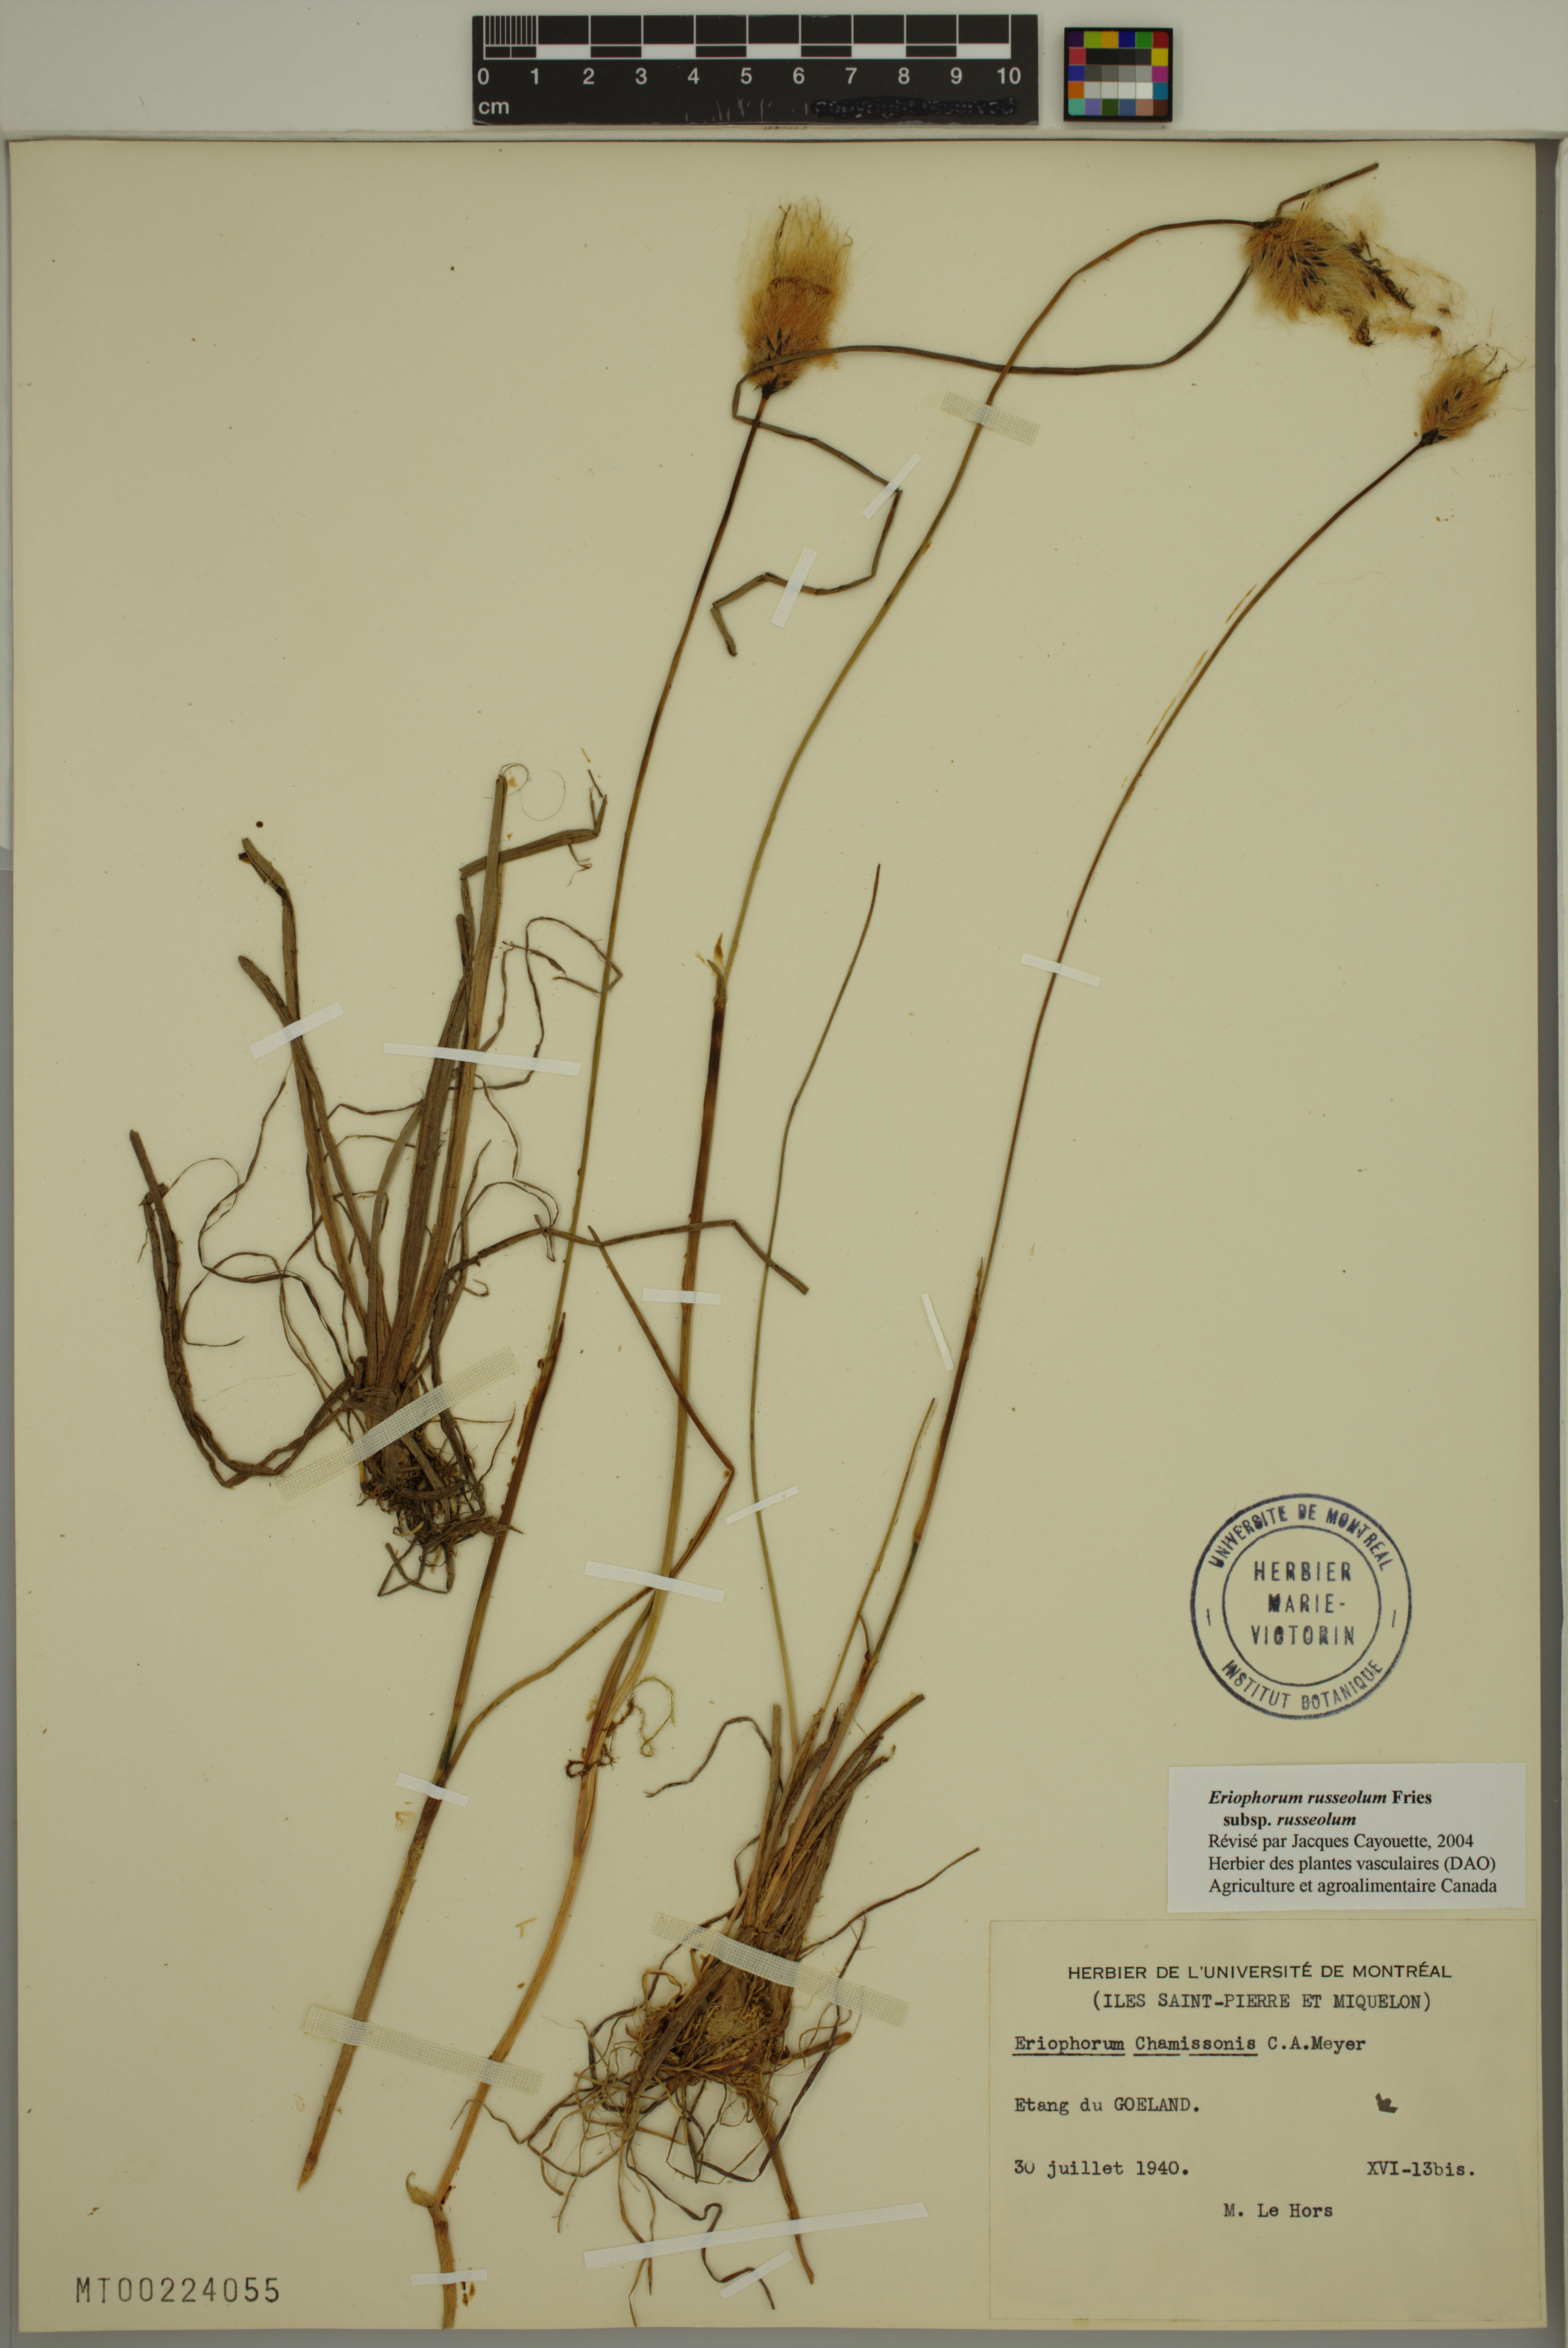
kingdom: Plantae
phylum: Tracheophyta
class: Liliopsida
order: Poales
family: Cyperaceae
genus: Eriophorum
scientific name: Eriophorum russeolum
